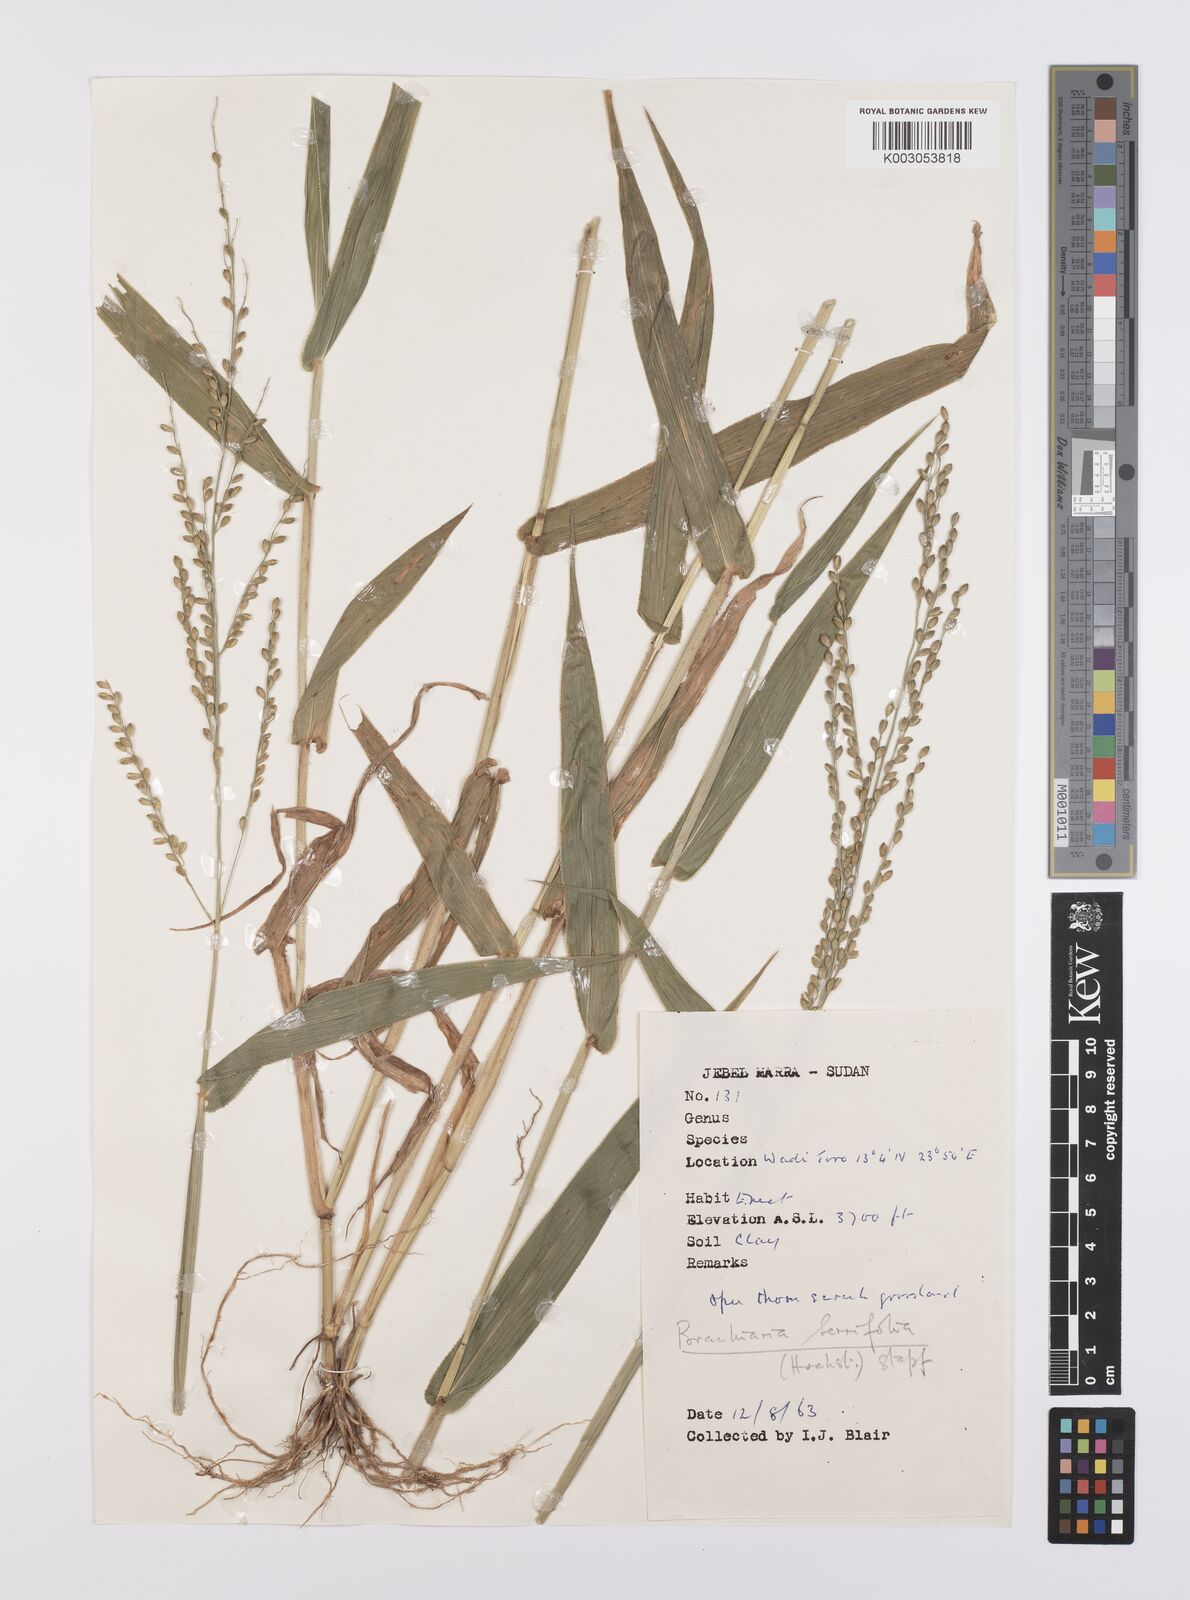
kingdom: Plantae
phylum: Tracheophyta
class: Liliopsida
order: Poales
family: Poaceae
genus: Urochloa
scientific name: Urochloa serrifolia
